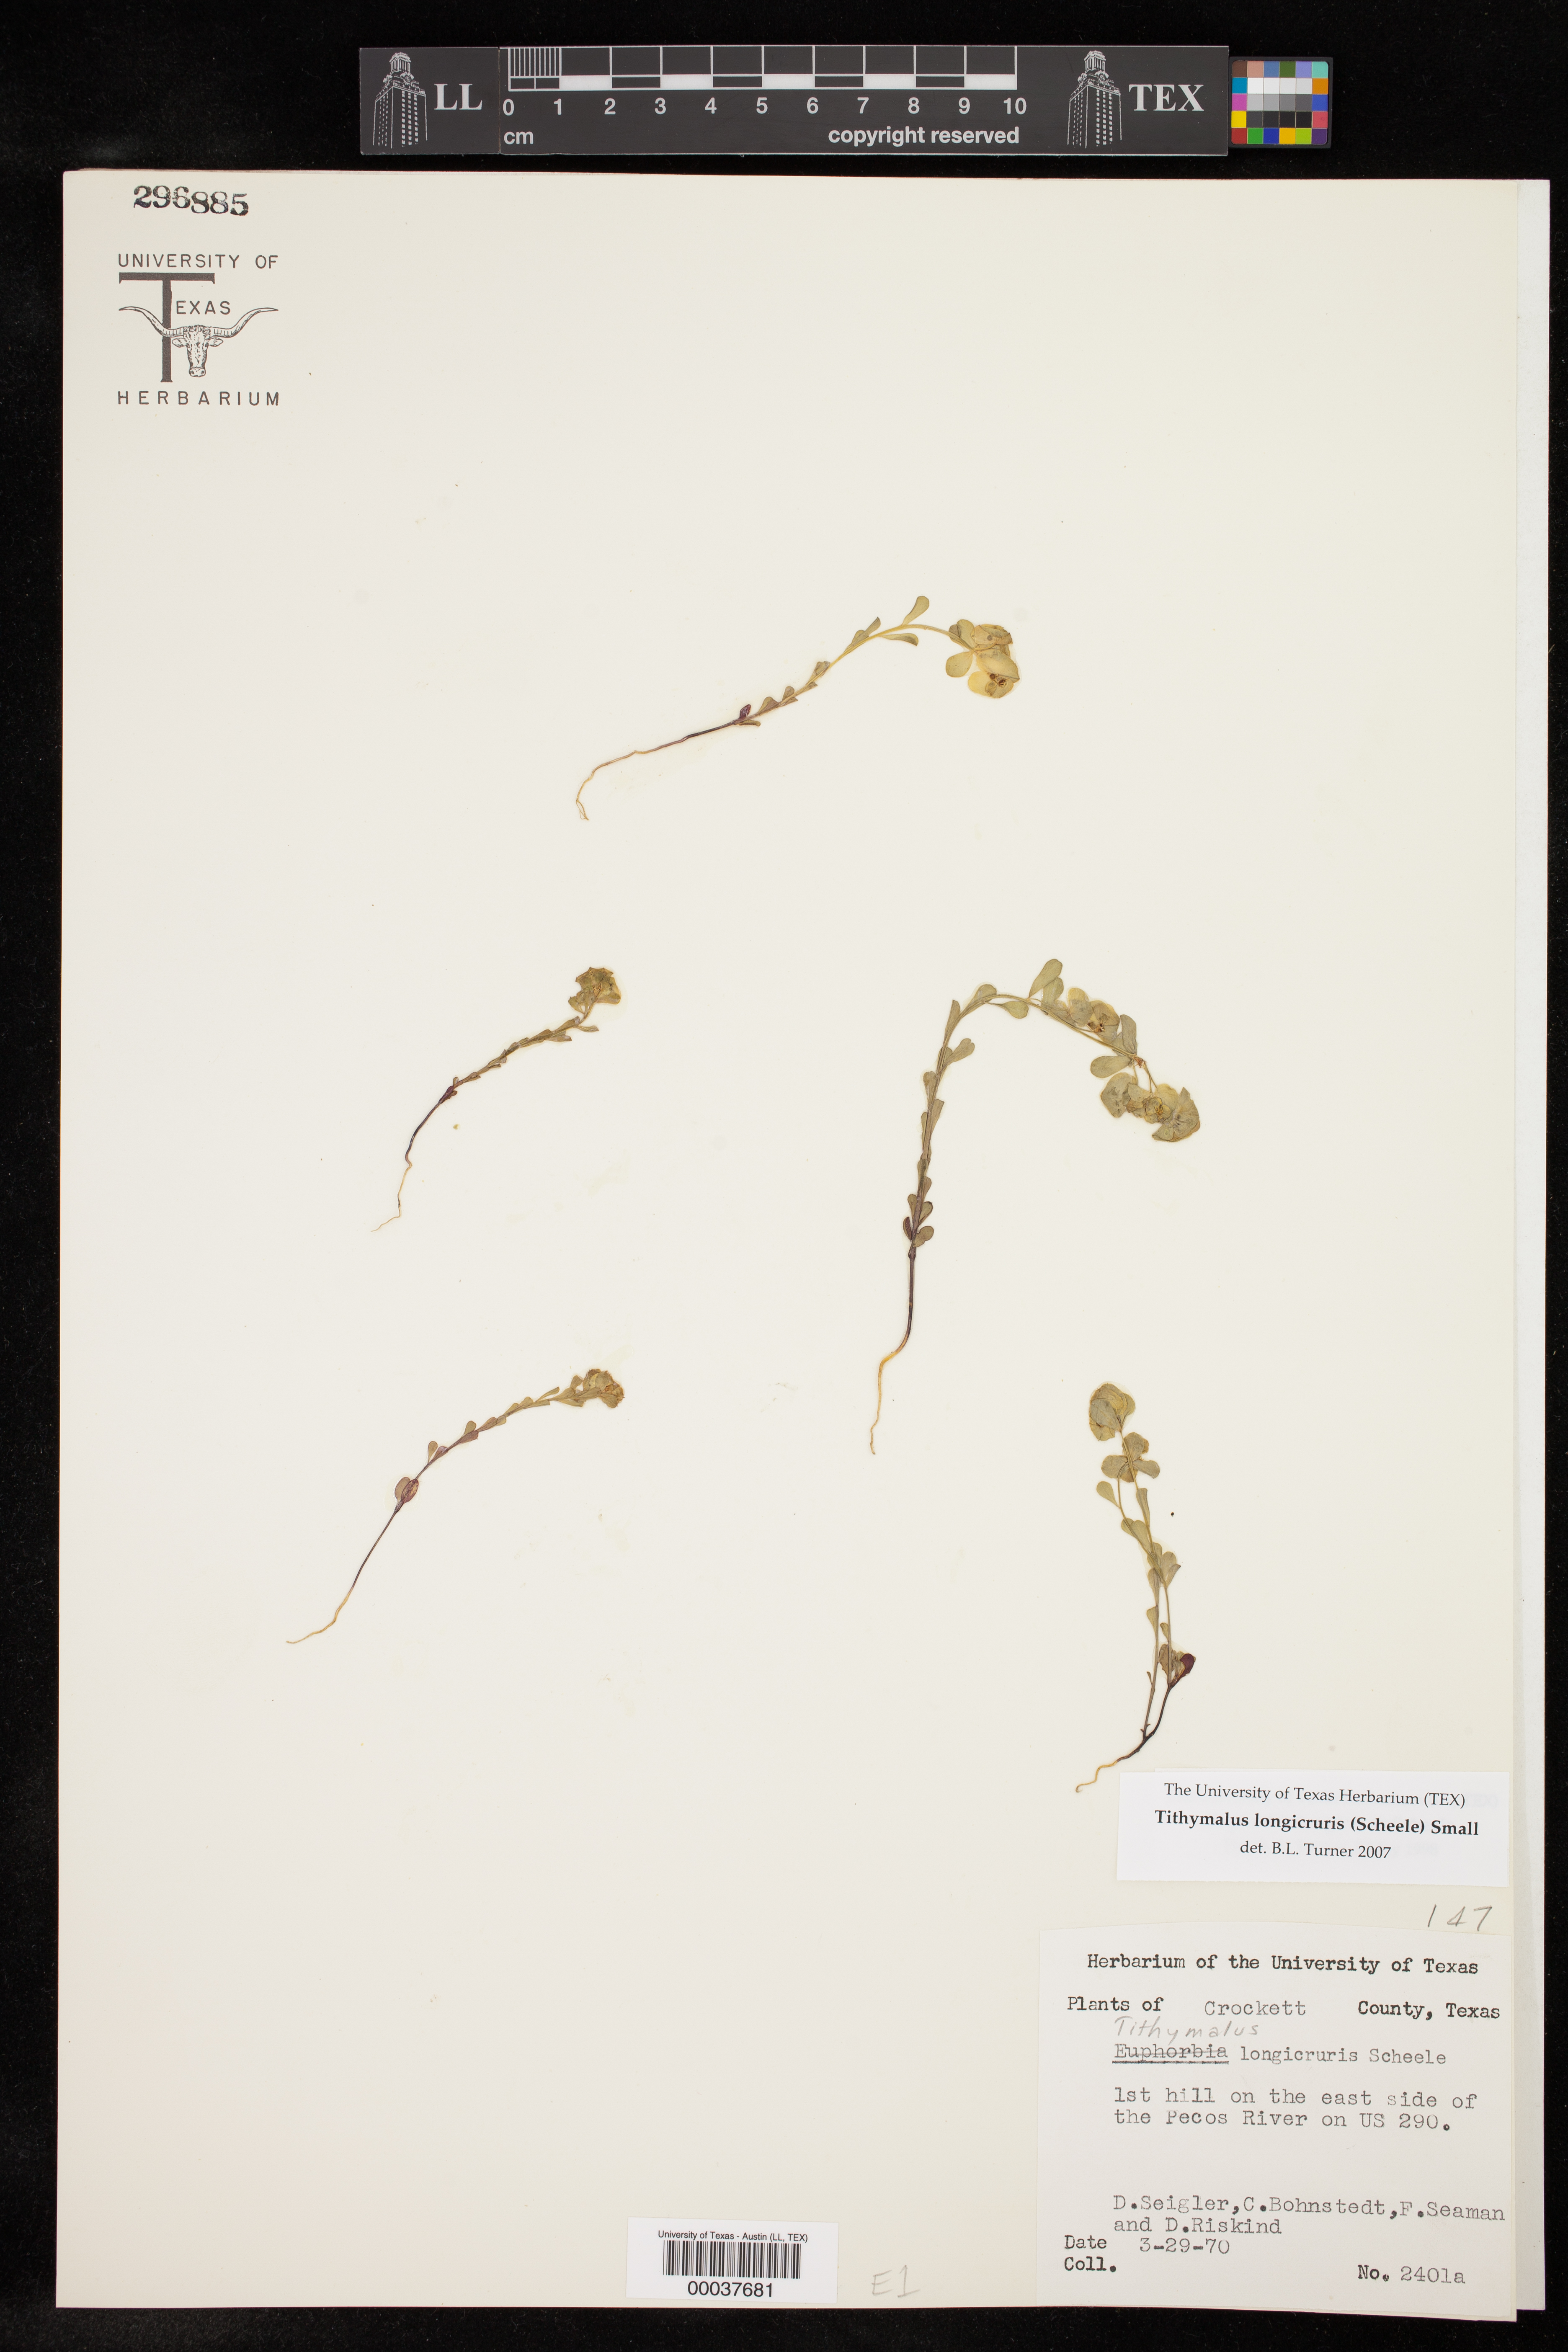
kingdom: Plantae
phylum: Tracheophyta
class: Magnoliopsida
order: Malpighiales
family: Euphorbiaceae
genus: Euphorbia
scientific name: Euphorbia longicruris
